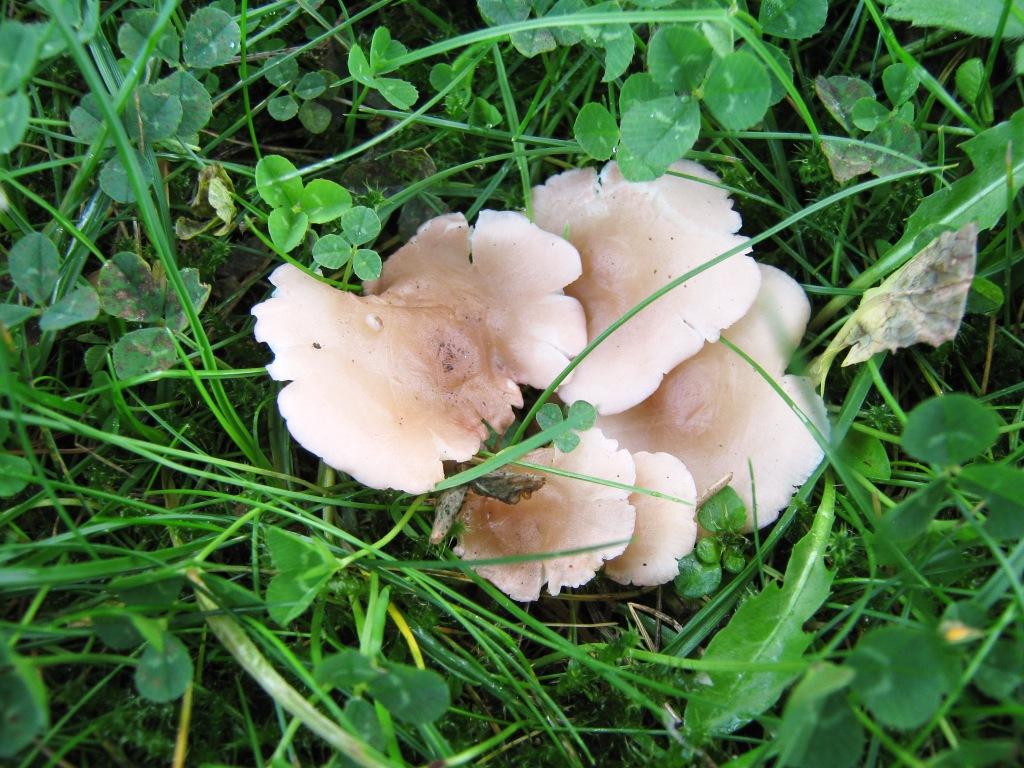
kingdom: Fungi
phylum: Basidiomycota
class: Agaricomycetes
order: Agaricales
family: Lyophyllaceae
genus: Calocybe
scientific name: Calocybe carnea
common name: rosa fagerhat
